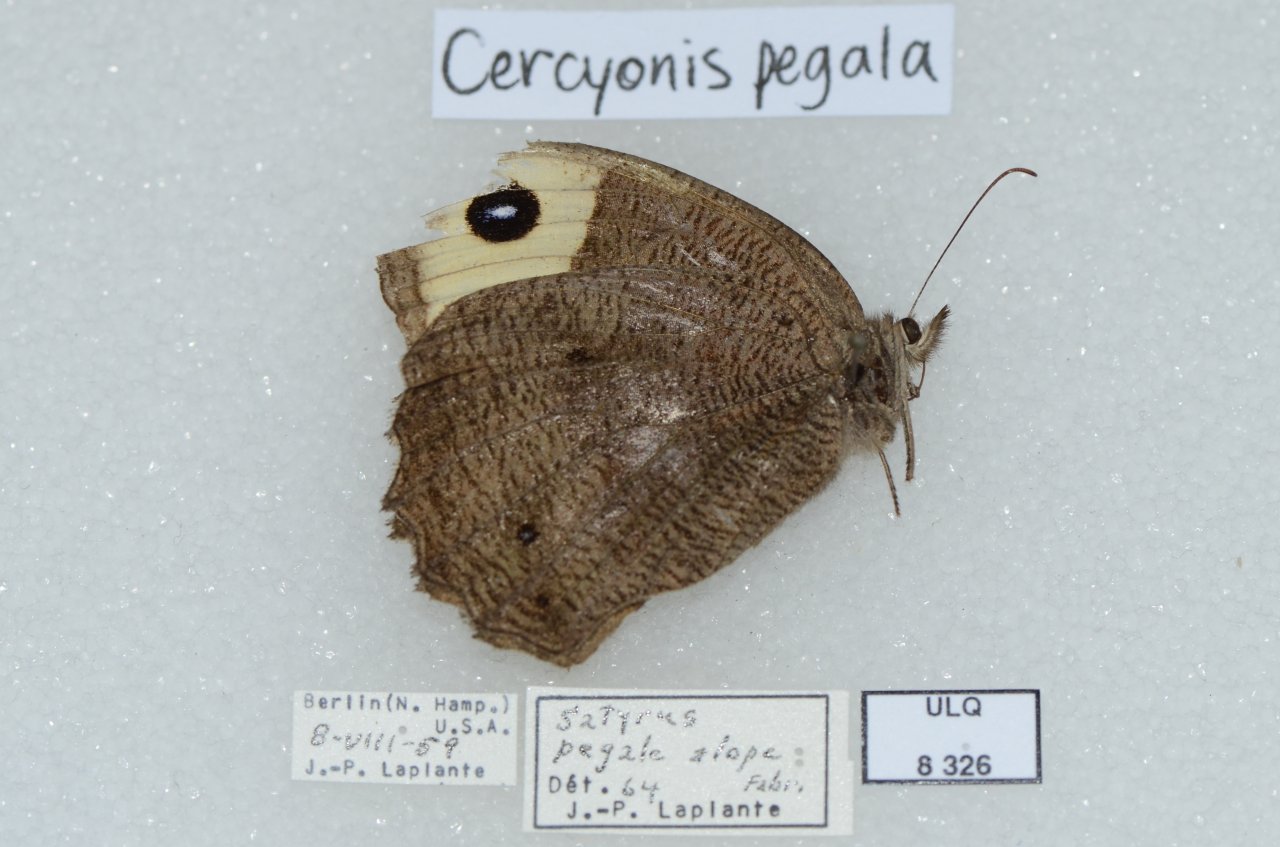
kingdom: Animalia
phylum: Arthropoda
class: Insecta
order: Lepidoptera
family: Nymphalidae
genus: Cercyonis
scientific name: Cercyonis pegala
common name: Common Wood-Nymph
